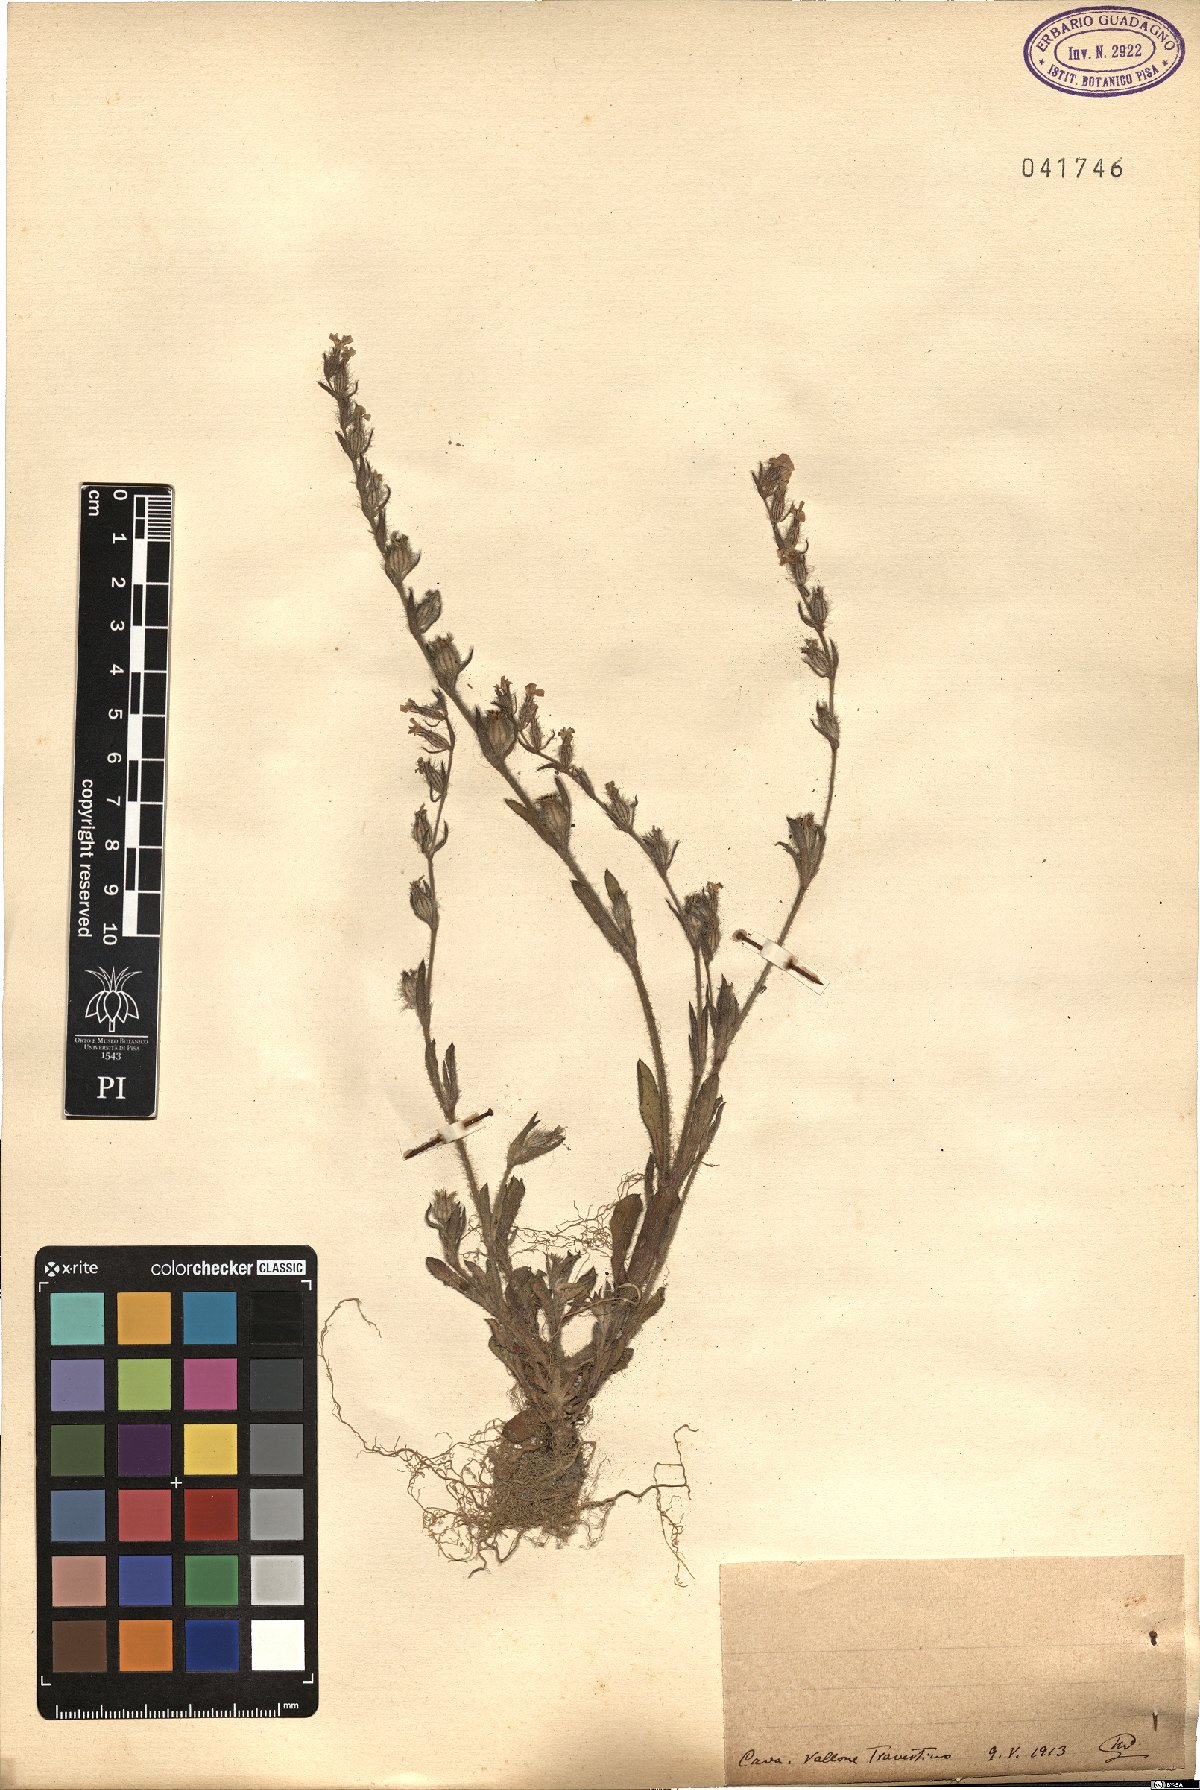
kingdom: Plantae
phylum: Tracheophyta
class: Magnoliopsida
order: Caryophyllales
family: Caryophyllaceae
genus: Silene
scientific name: Silene
